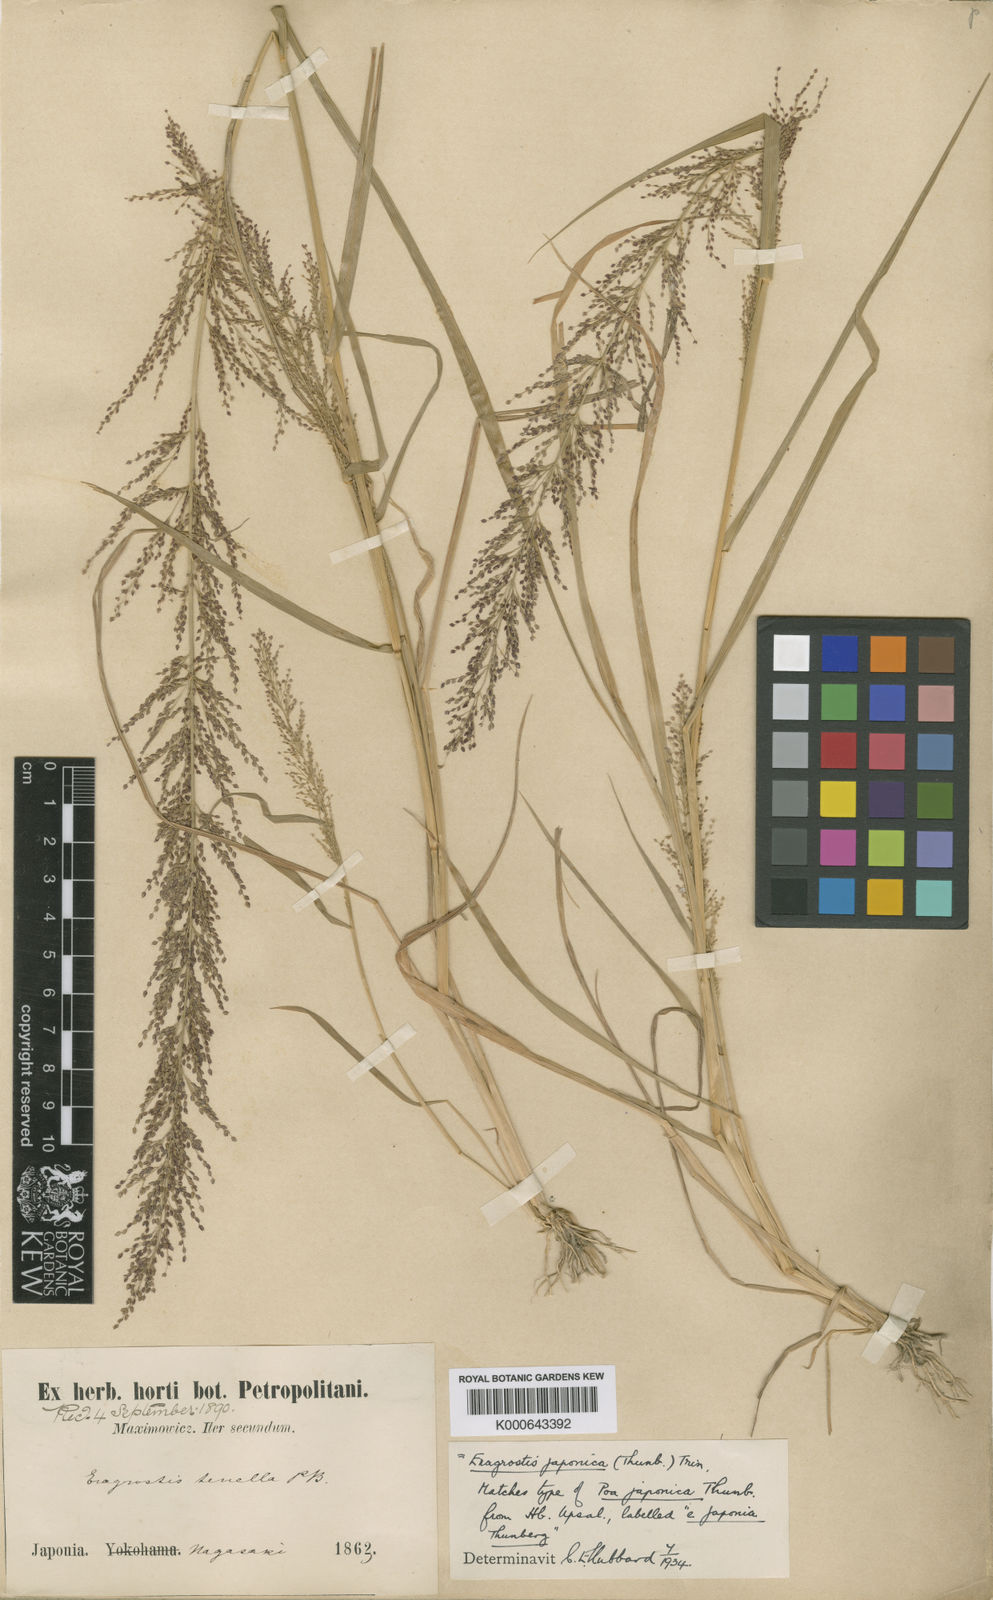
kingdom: Plantae
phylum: Tracheophyta
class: Liliopsida
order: Poales
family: Poaceae
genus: Eragrostis
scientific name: Eragrostis japonica
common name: Pond lovegrass
